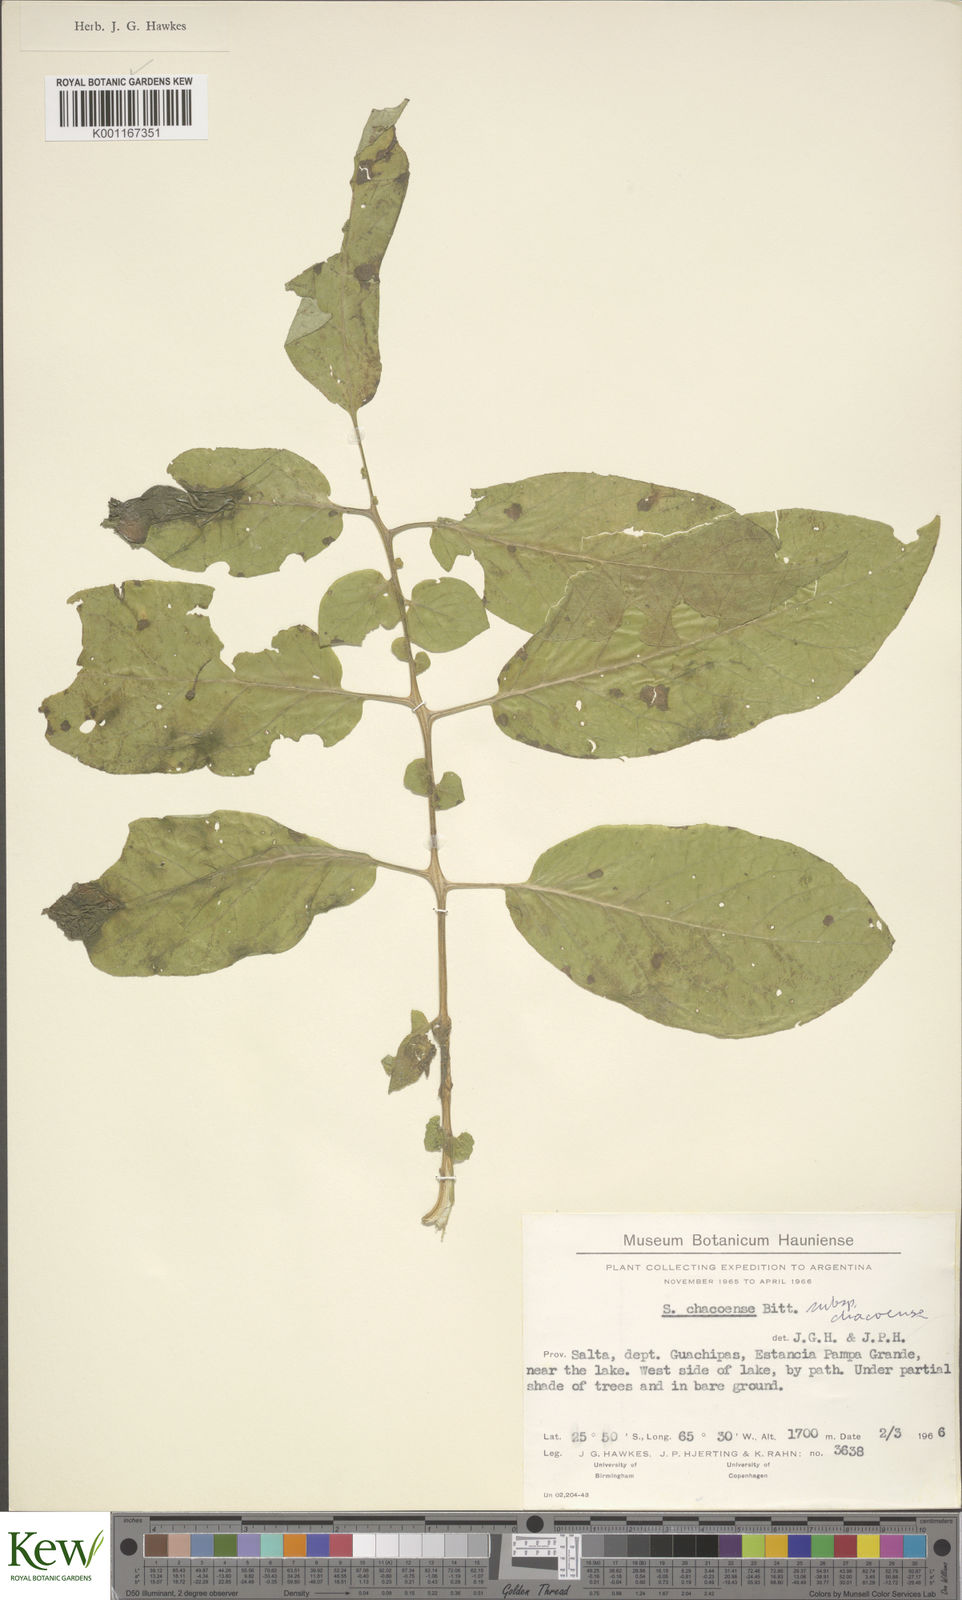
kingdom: Plantae
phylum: Tracheophyta
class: Magnoliopsida
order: Solanales
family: Solanaceae
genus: Solanum
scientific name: Solanum chacoense
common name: Chaco potato
